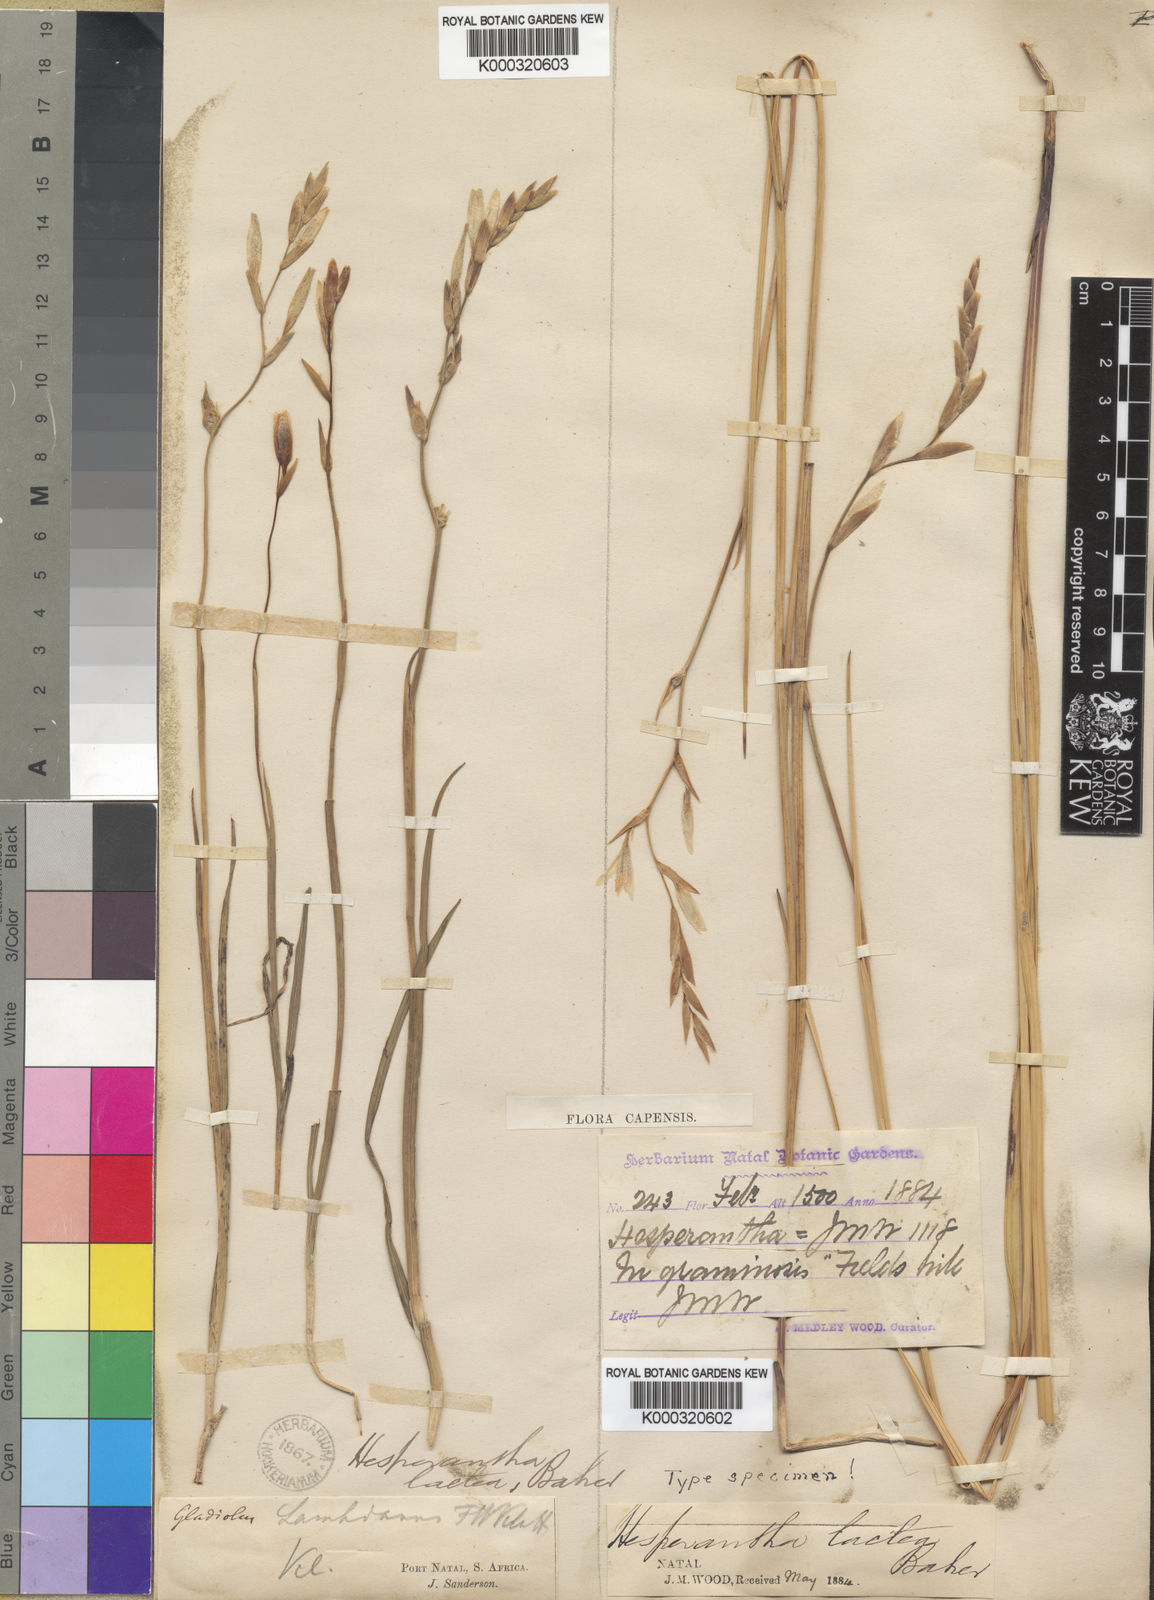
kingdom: Plantae
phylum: Tracheophyta
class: Liliopsida
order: Asparagales
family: Iridaceae
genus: Hesperantha
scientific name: Hesperantha lactea
